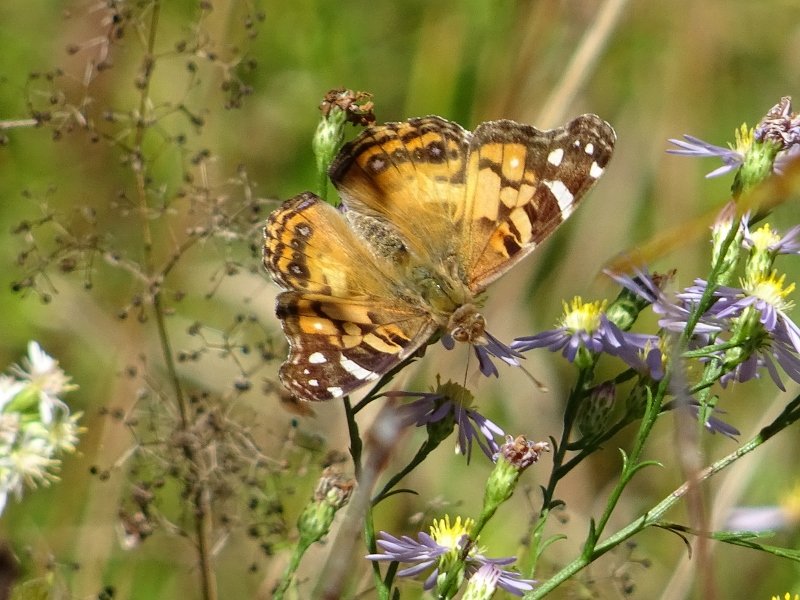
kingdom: Animalia
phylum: Arthropoda
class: Insecta
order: Lepidoptera
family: Nymphalidae
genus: Vanessa
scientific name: Vanessa virginiensis
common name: American Lady
